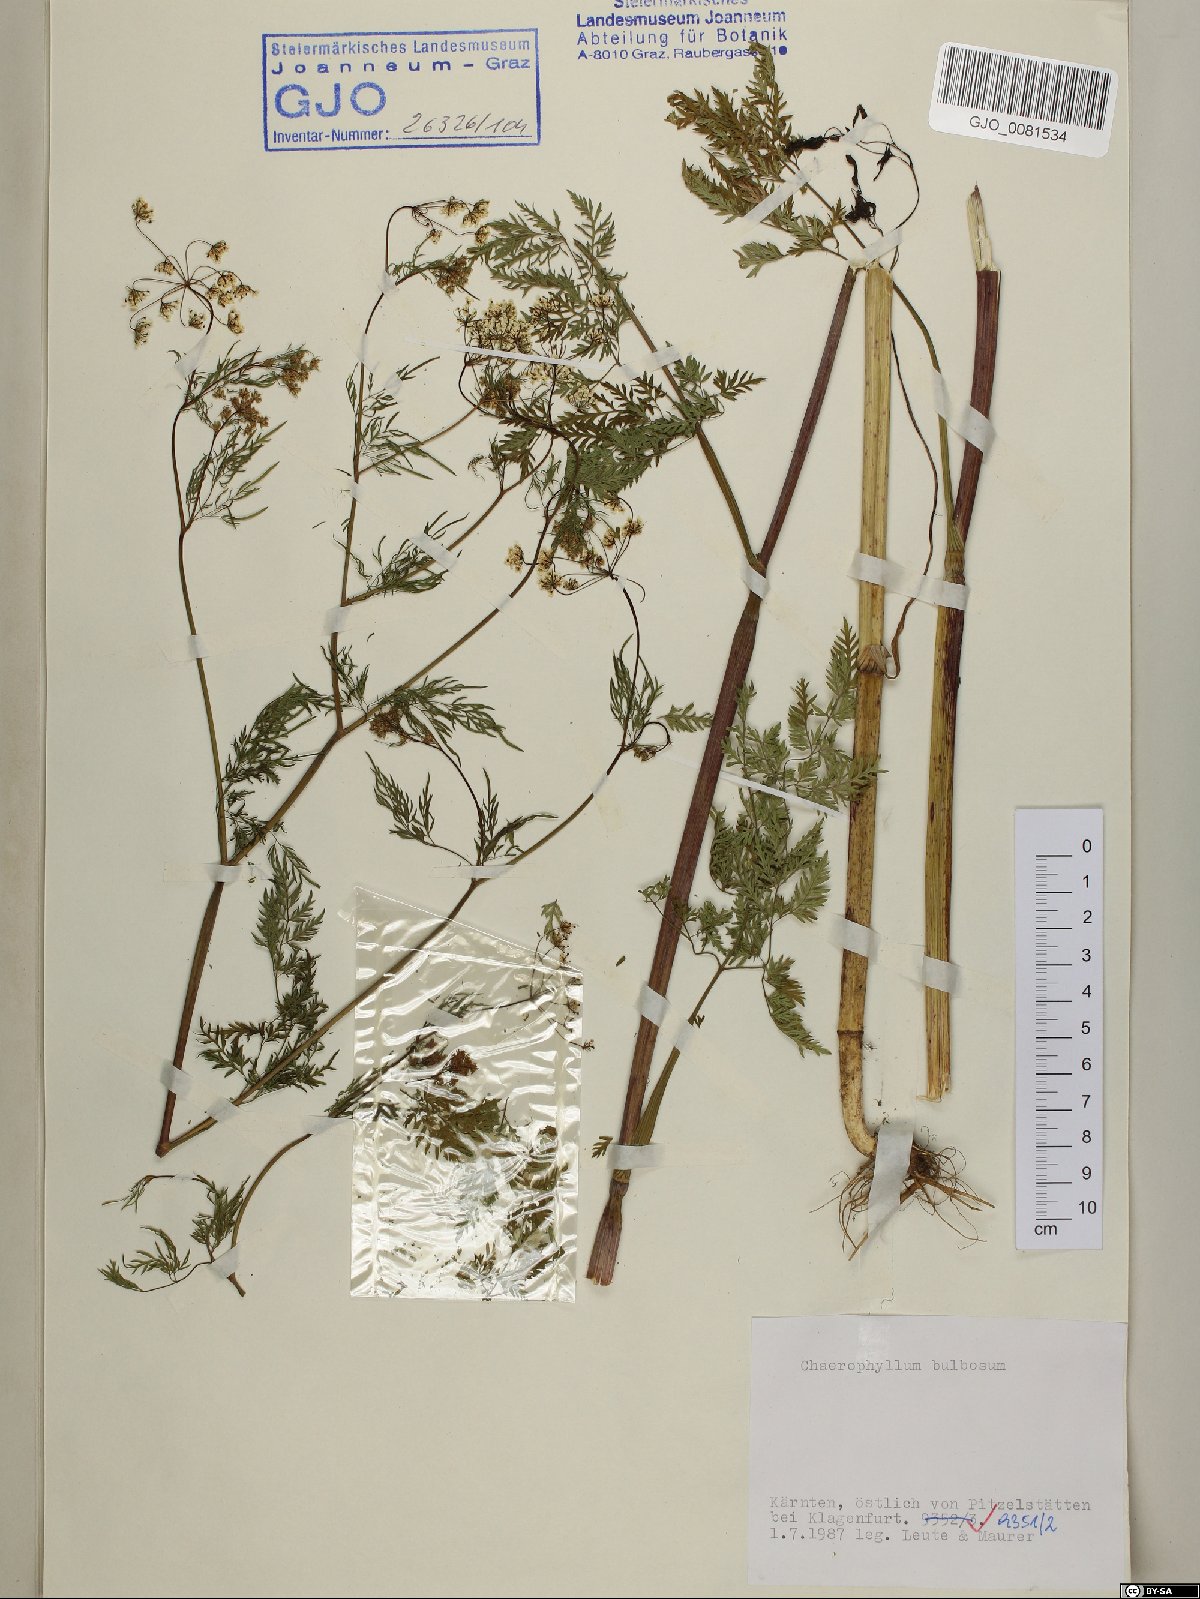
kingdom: Plantae
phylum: Tracheophyta
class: Magnoliopsida
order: Apiales
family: Apiaceae
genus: Chaerophyllum
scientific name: Chaerophyllum bulbosum
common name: Bulbous chervil
